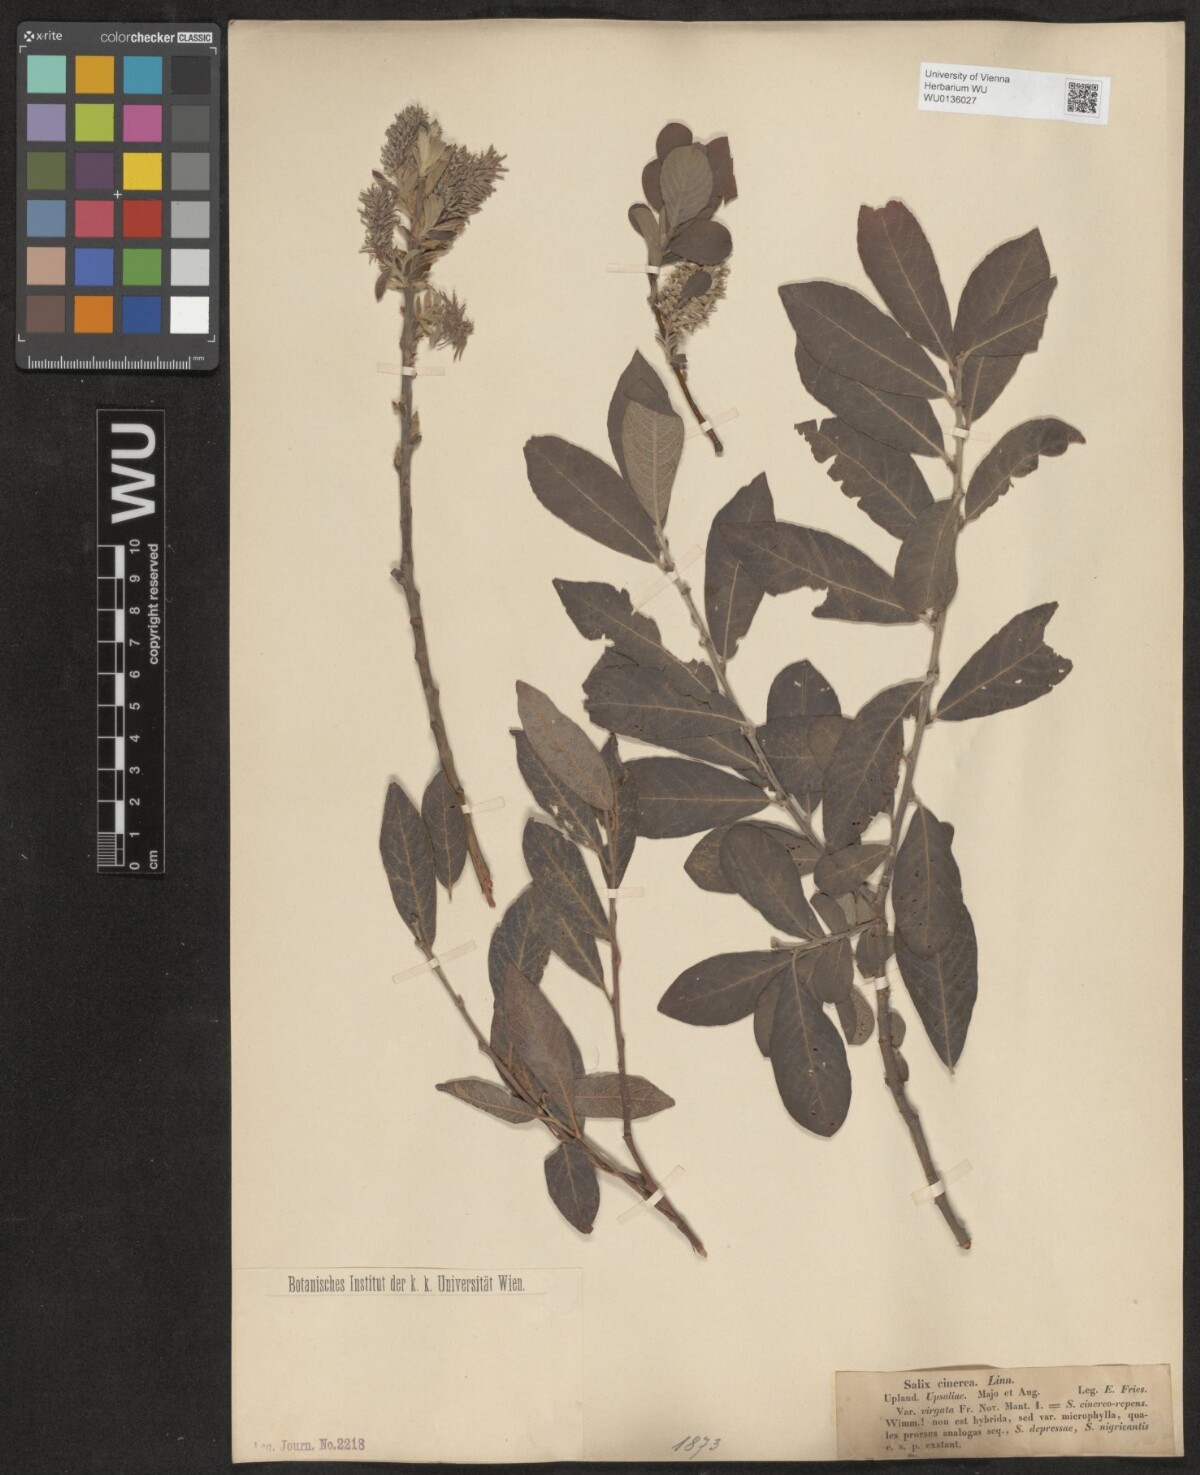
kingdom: Plantae
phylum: Tracheophyta
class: Magnoliopsida
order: Malpighiales
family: Salicaceae
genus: Salix
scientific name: Salix cinerea
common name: Common sallow
